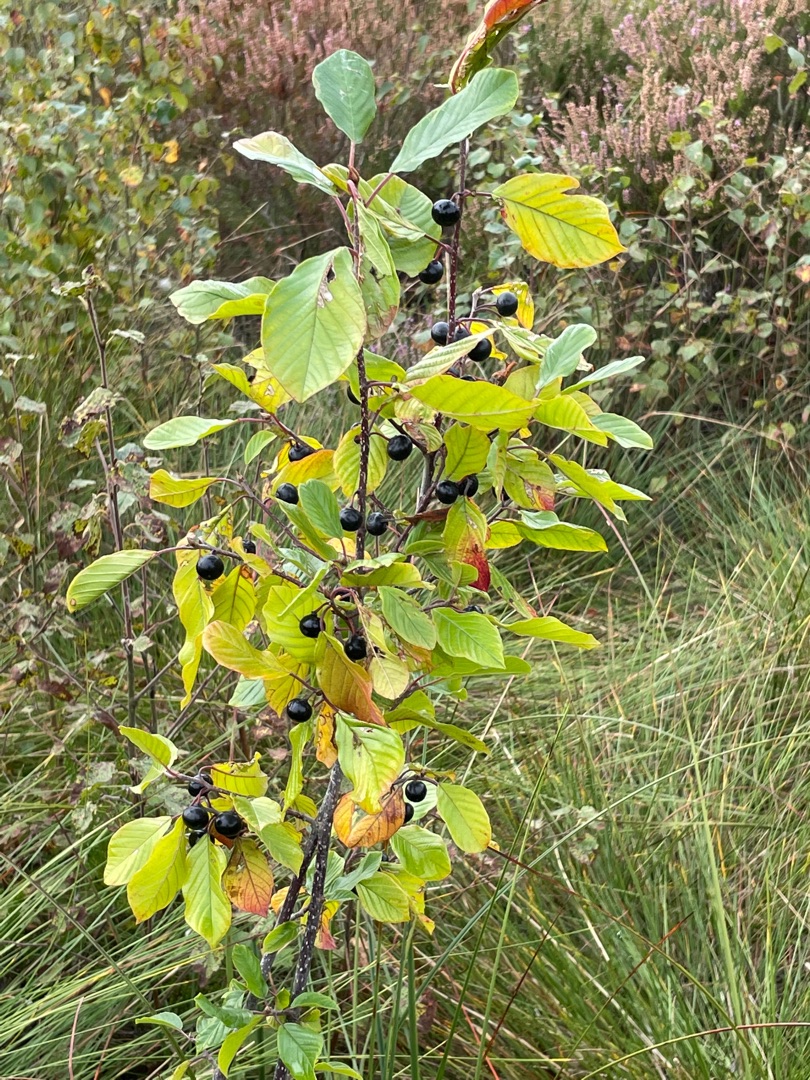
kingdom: Plantae
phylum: Tracheophyta
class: Magnoliopsida
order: Rosales
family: Rhamnaceae
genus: Frangula
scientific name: Frangula alnus
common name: Tørst
